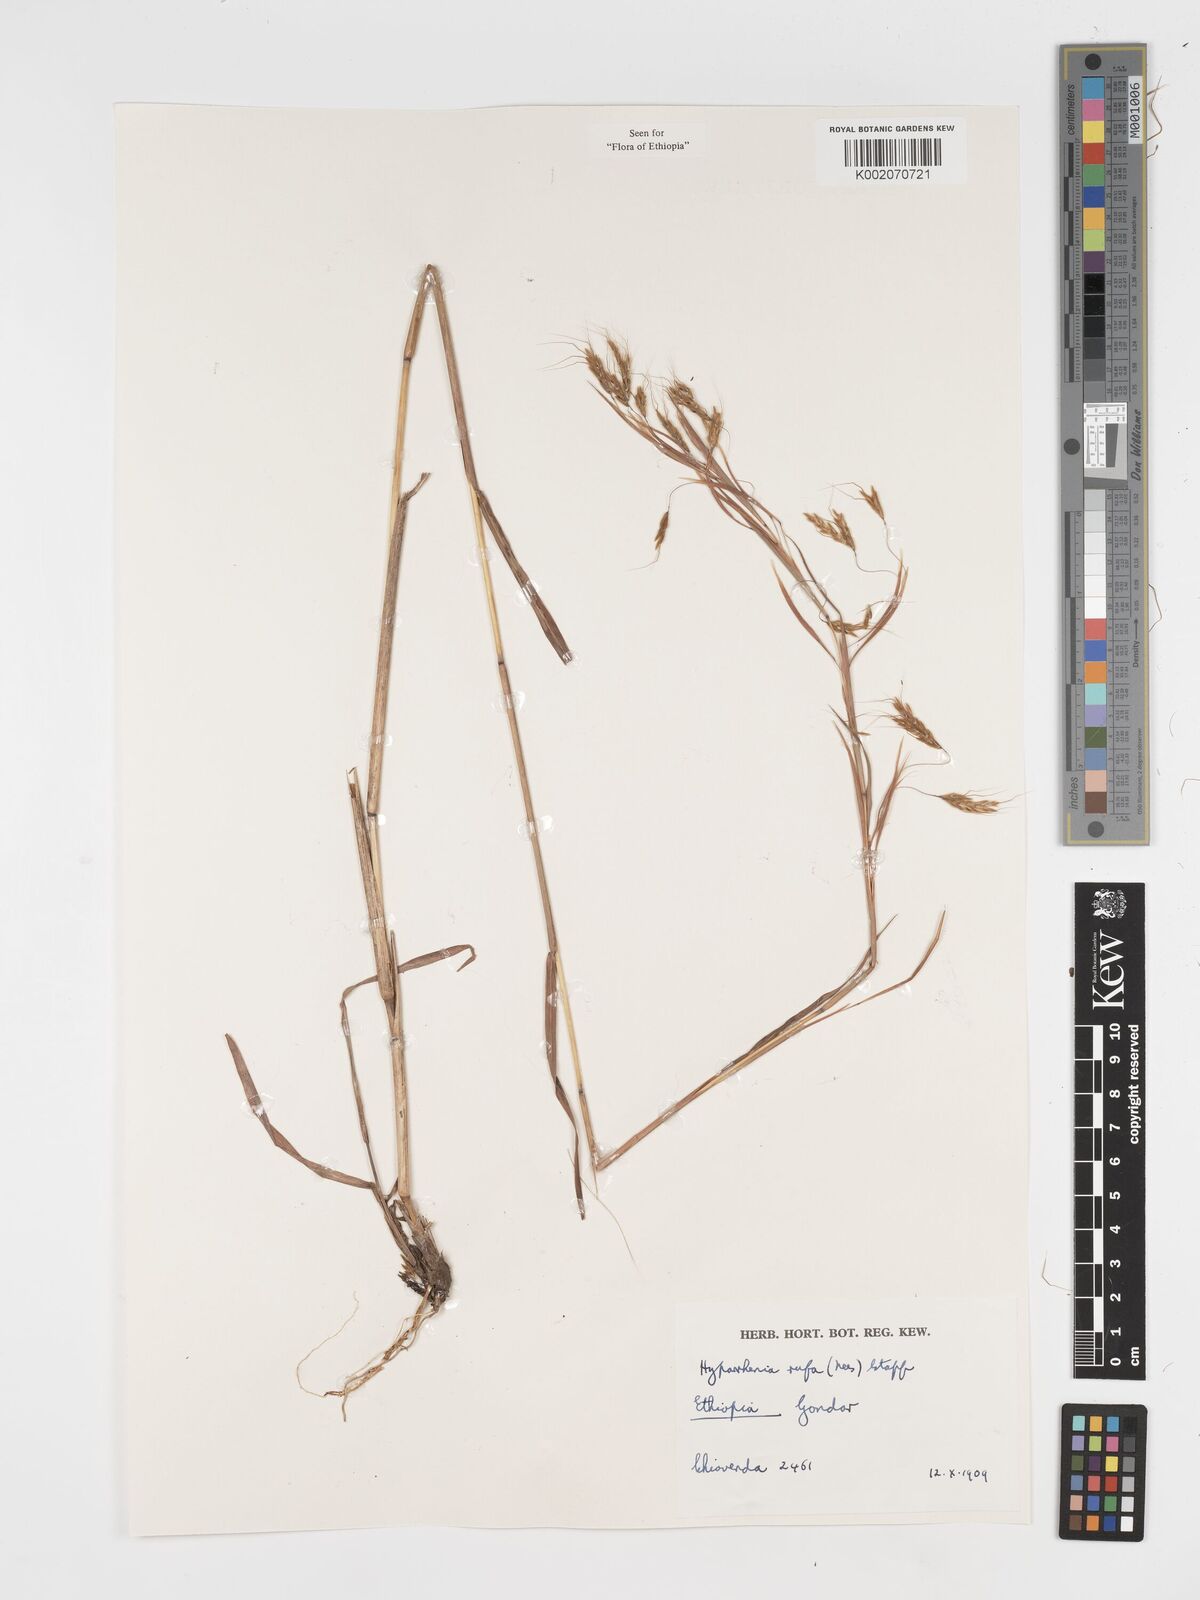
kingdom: Plantae
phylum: Tracheophyta
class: Liliopsida
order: Poales
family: Poaceae
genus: Hyparrhenia
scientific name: Hyparrhenia rufa
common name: Jaraguagrass
